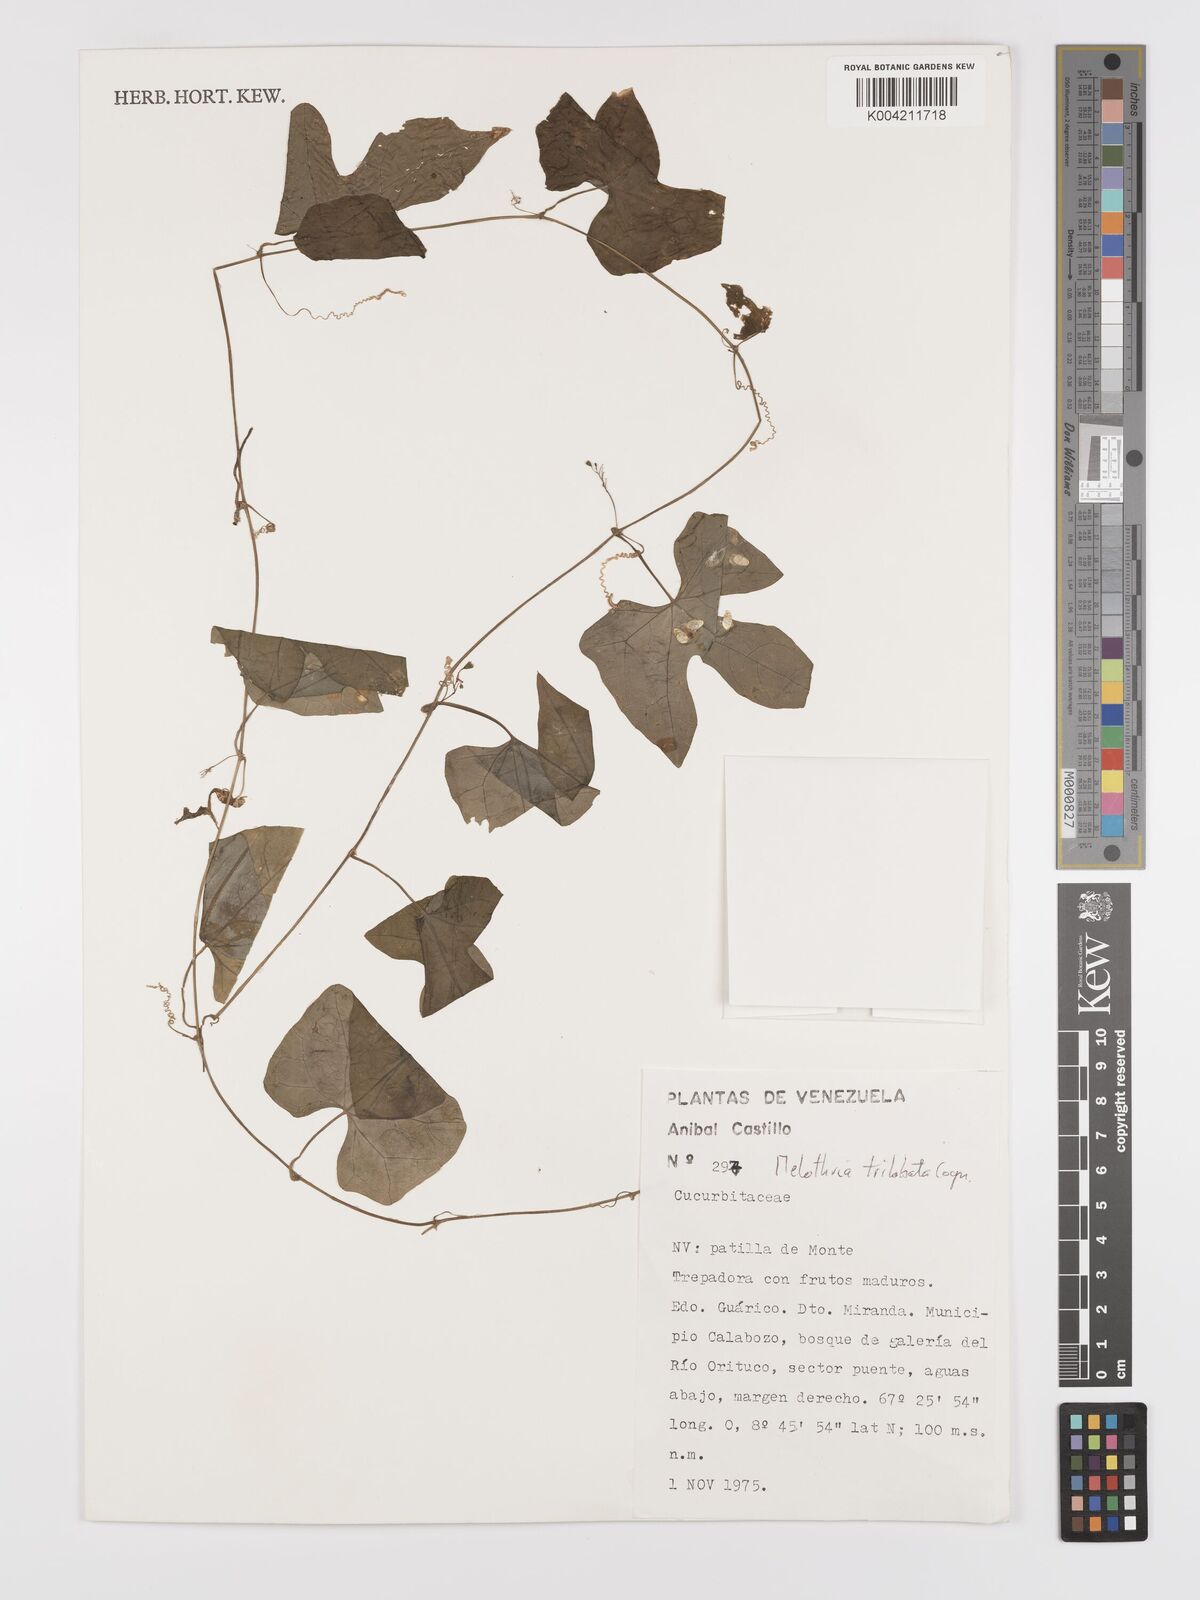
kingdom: Plantae
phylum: Tracheophyta
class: Magnoliopsida
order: Cucurbitales
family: Cucurbitaceae
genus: Melothria
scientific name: Melothria trilobata
